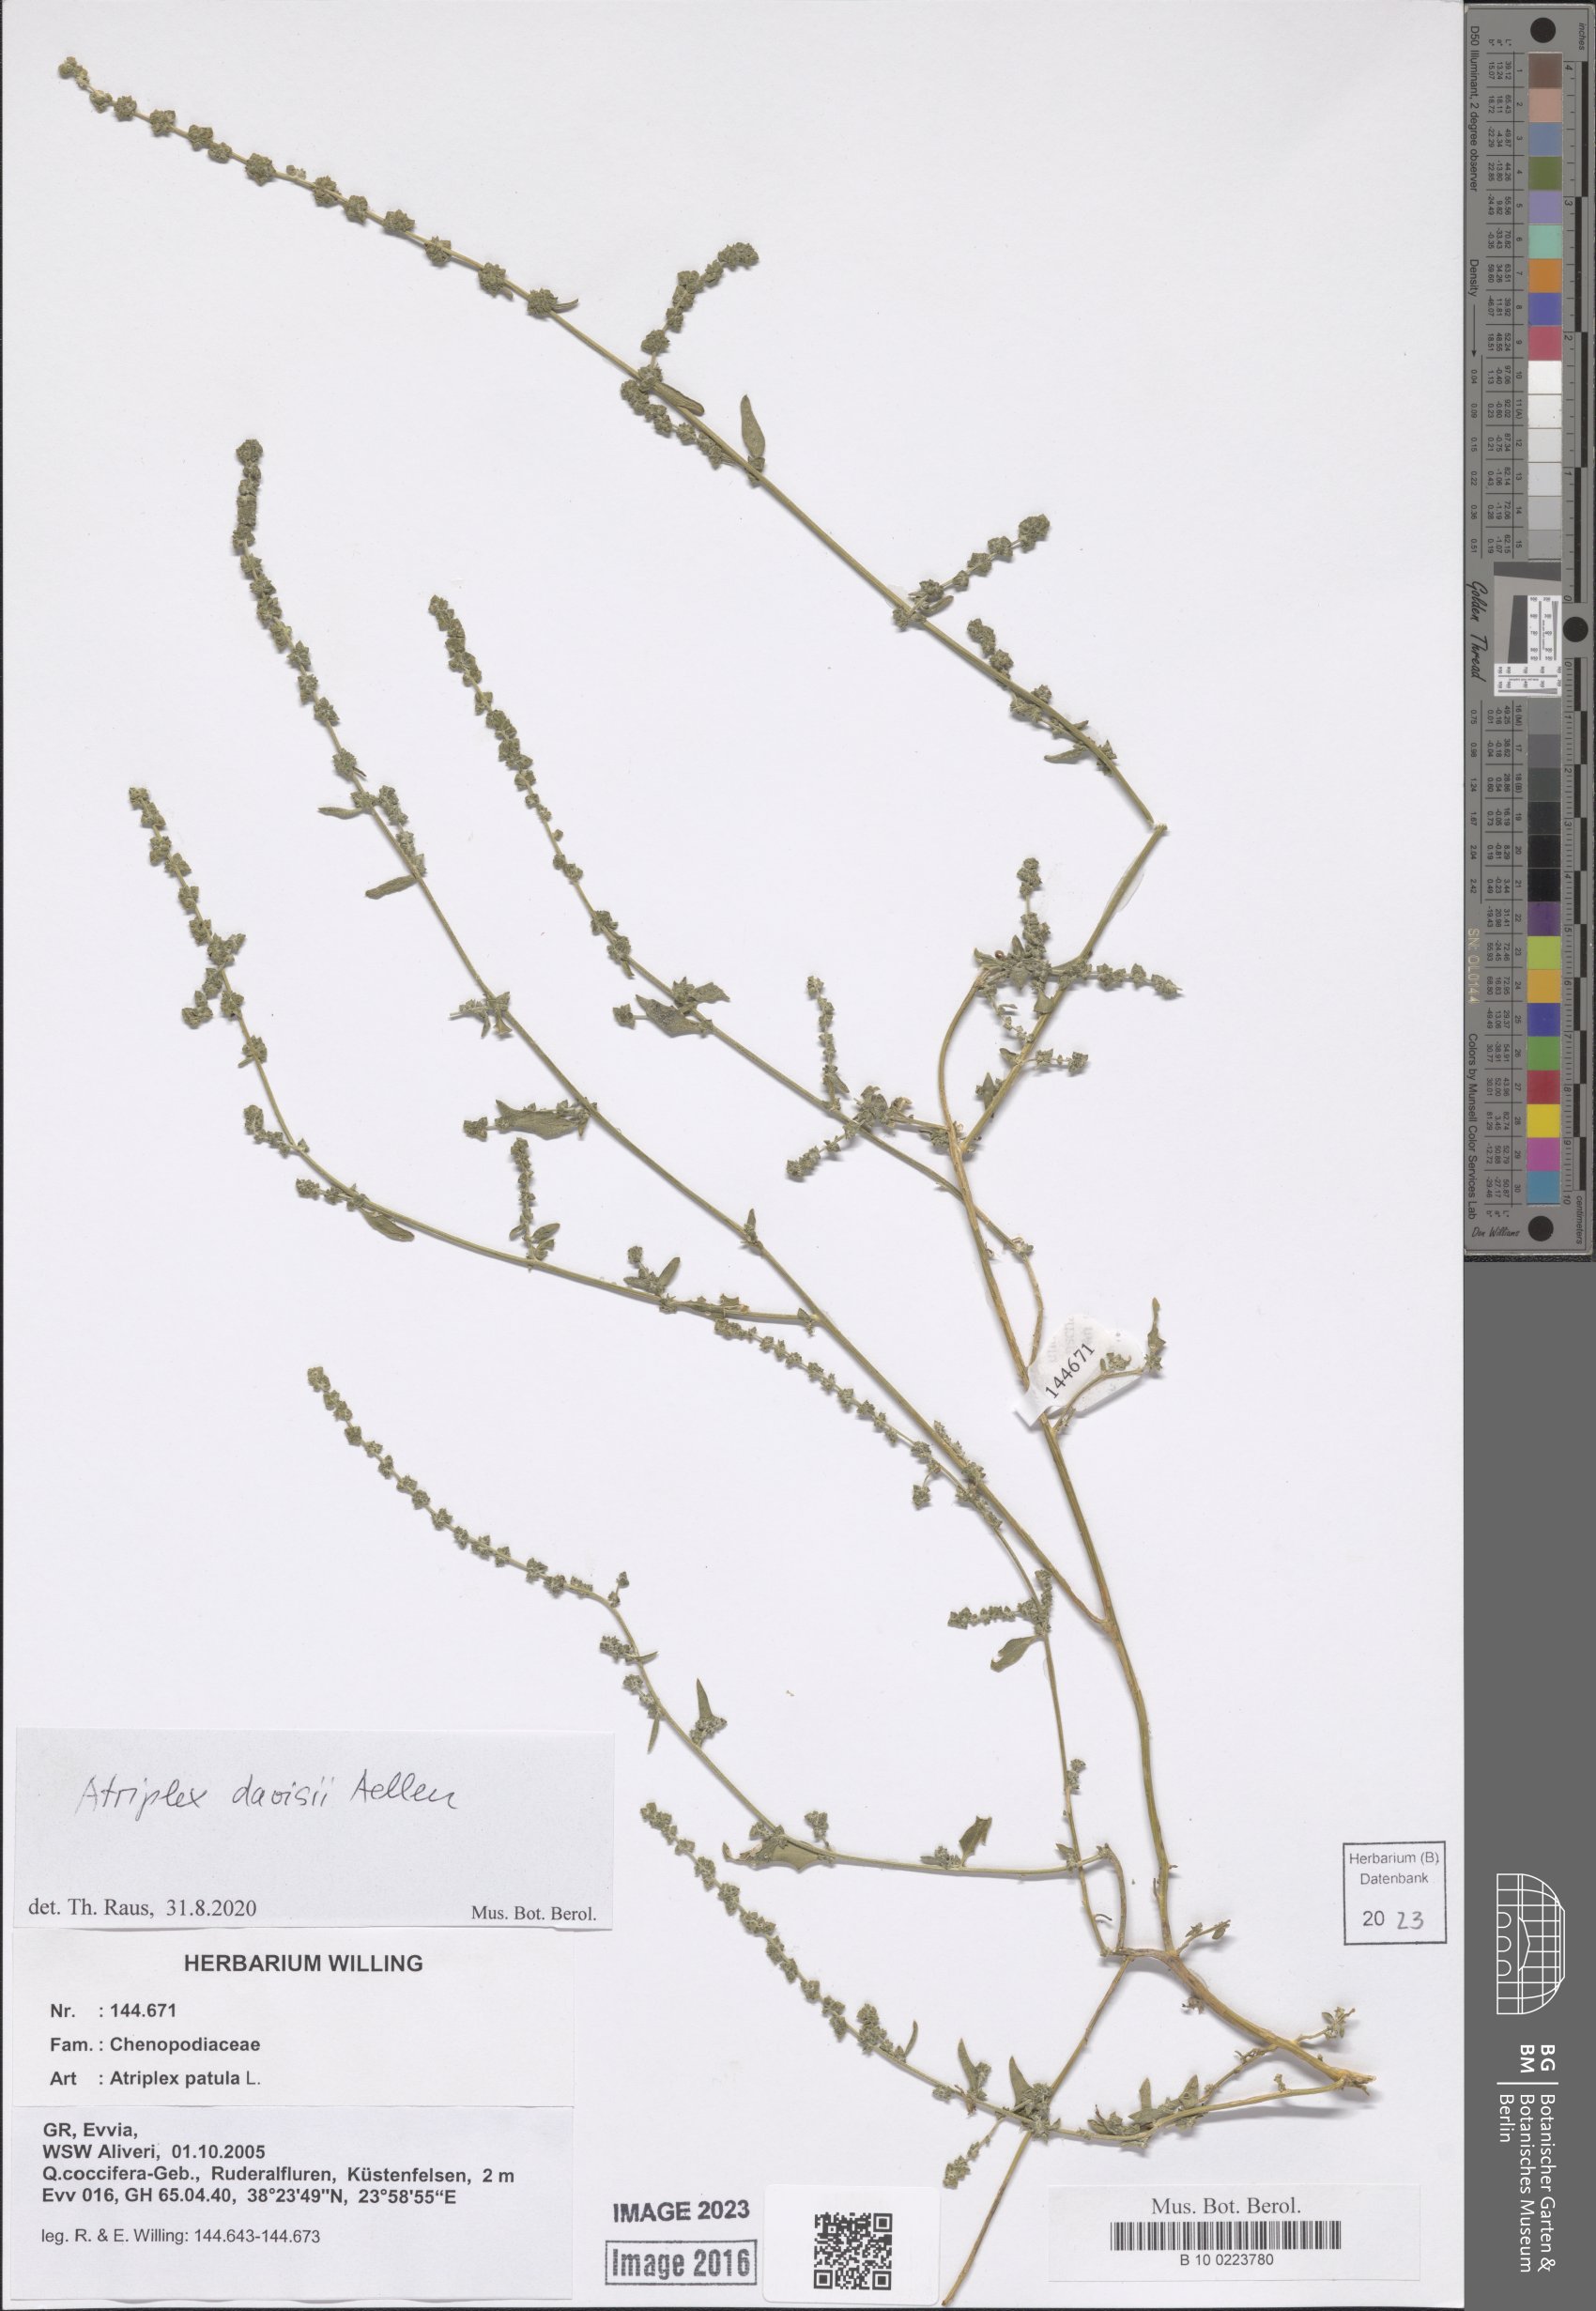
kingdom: Plantae
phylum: Tracheophyta
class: Magnoliopsida
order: Caryophyllales
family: Amaranthaceae
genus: Atriplex
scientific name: Atriplex davisii
